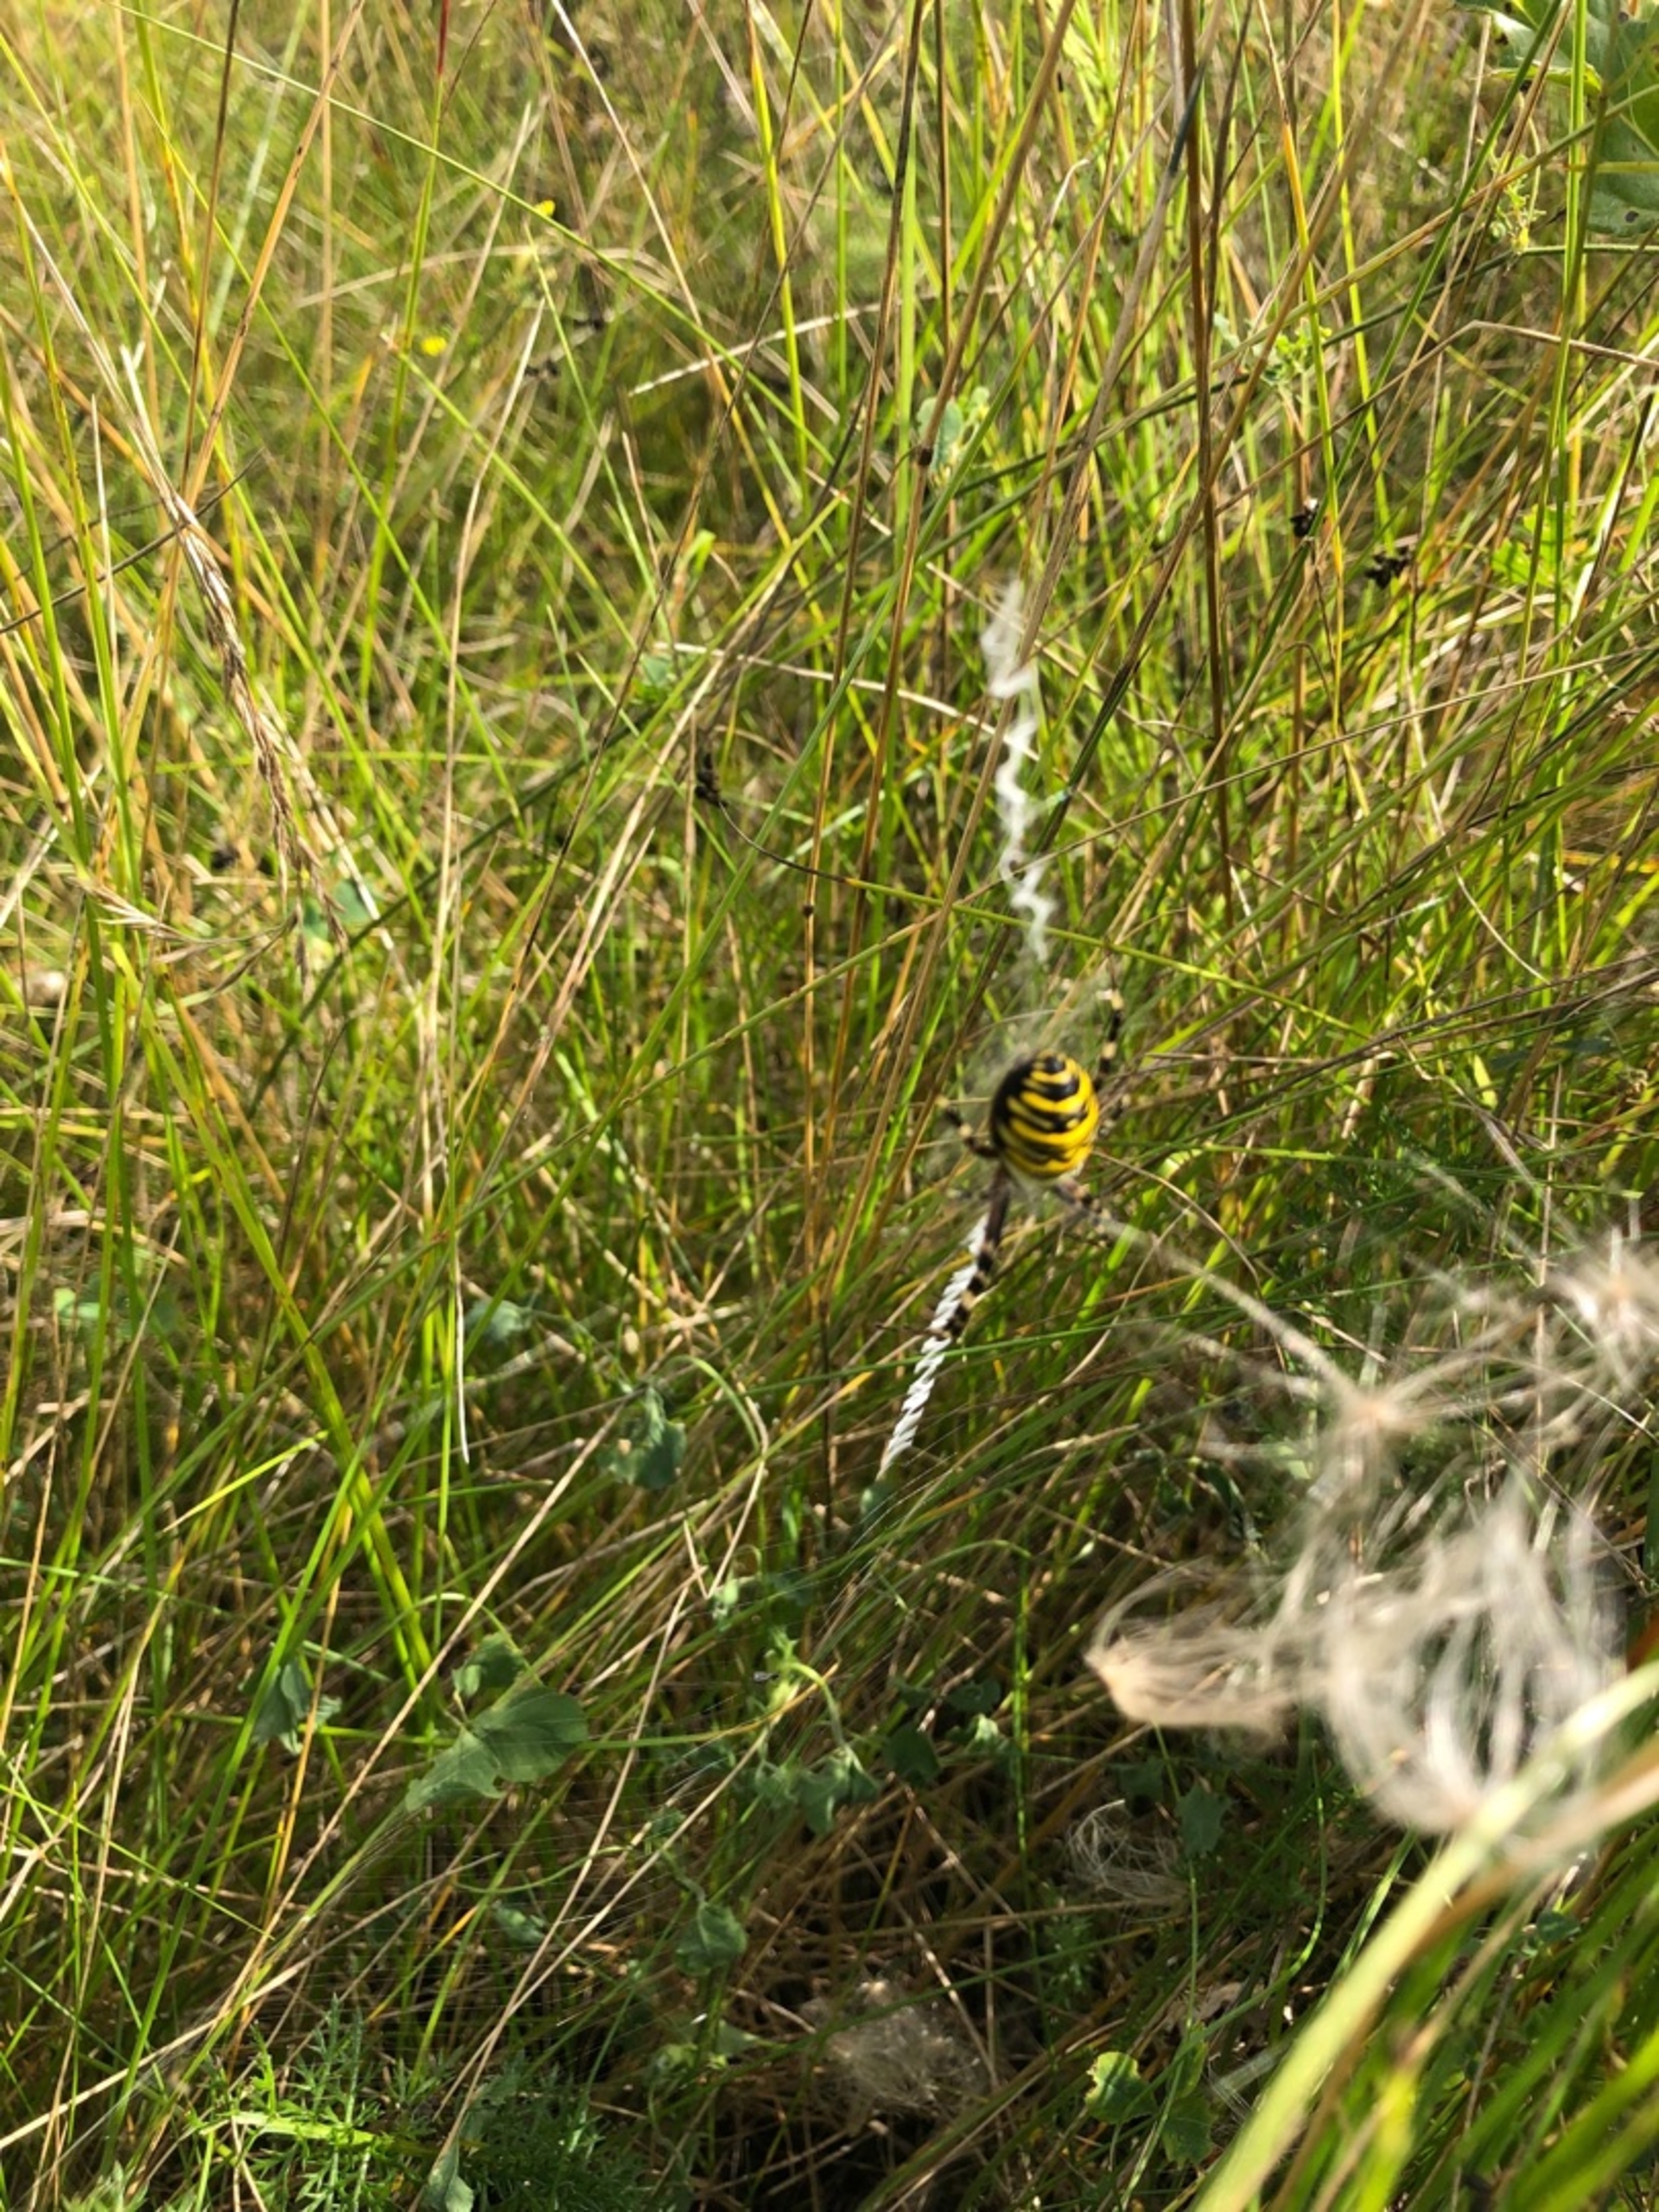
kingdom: Animalia
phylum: Arthropoda
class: Arachnida
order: Araneae
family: Araneidae
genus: Argiope
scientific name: Argiope bruennichi
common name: Hvepseedderkop
